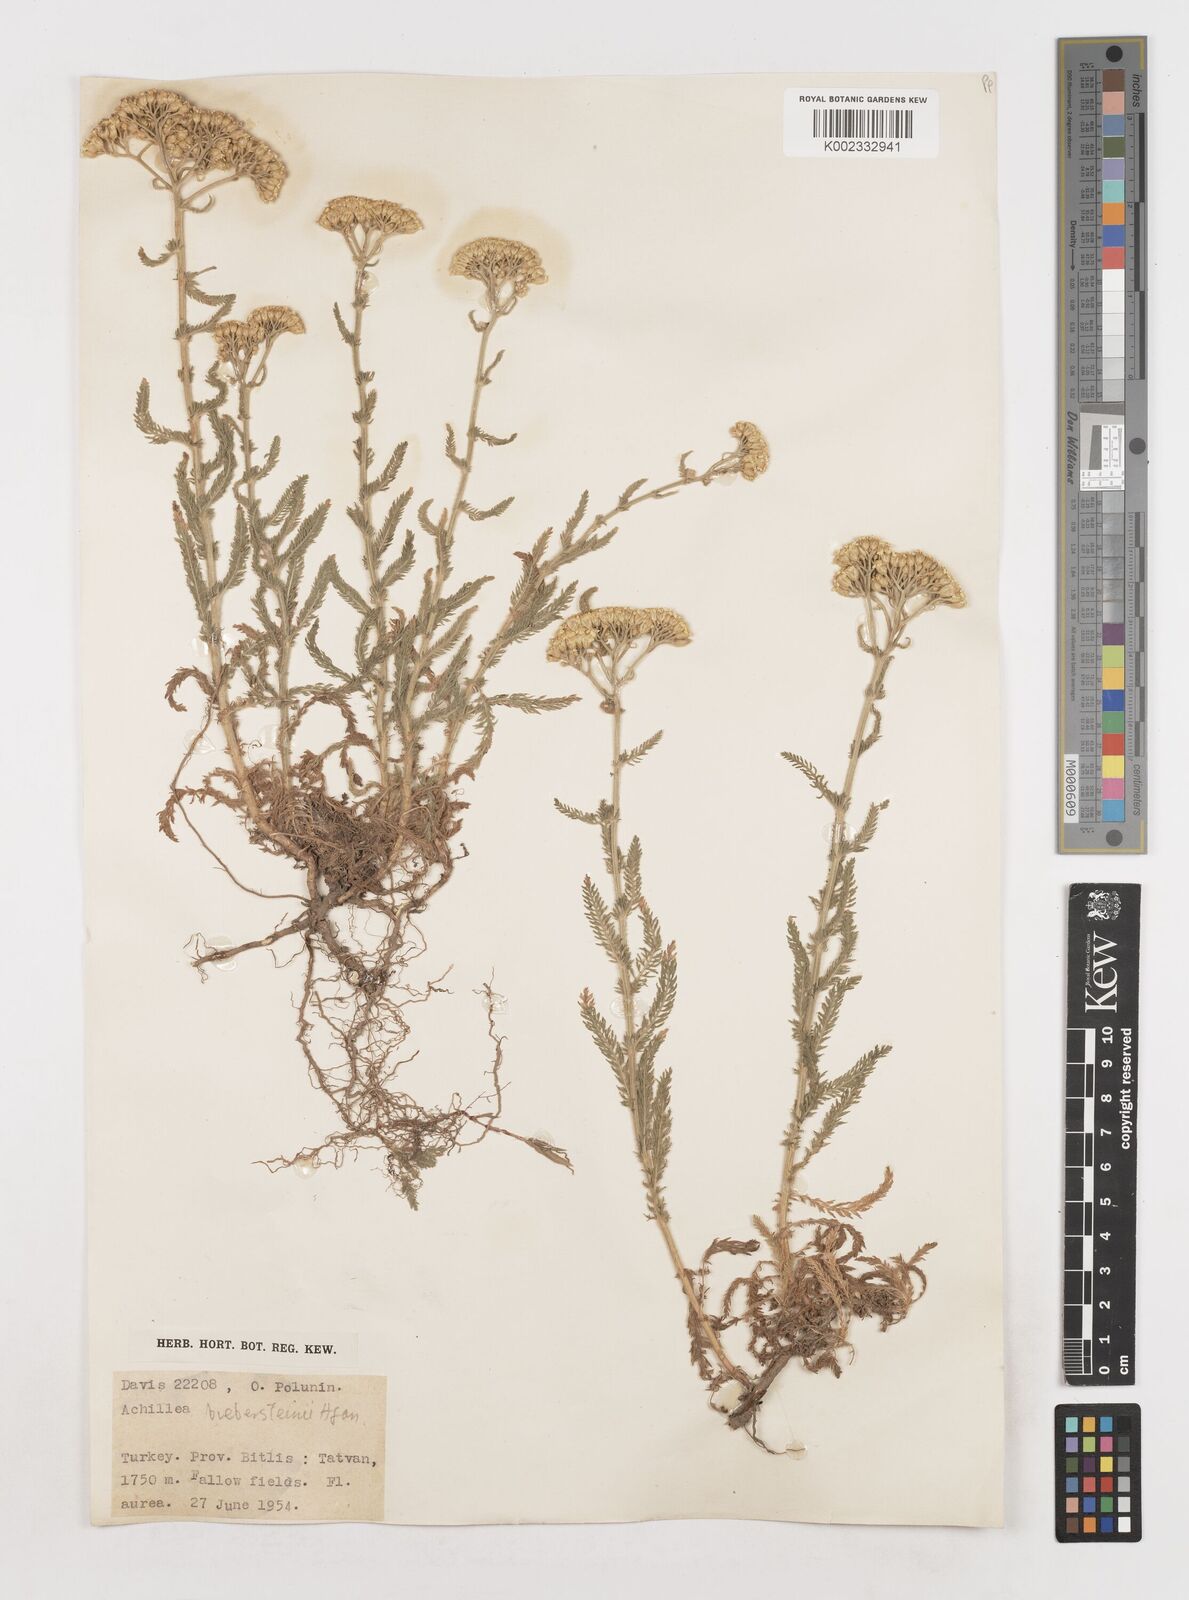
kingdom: Plantae
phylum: Tracheophyta
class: Magnoliopsida
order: Asterales
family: Asteraceae
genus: Achillea
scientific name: Achillea arabica
